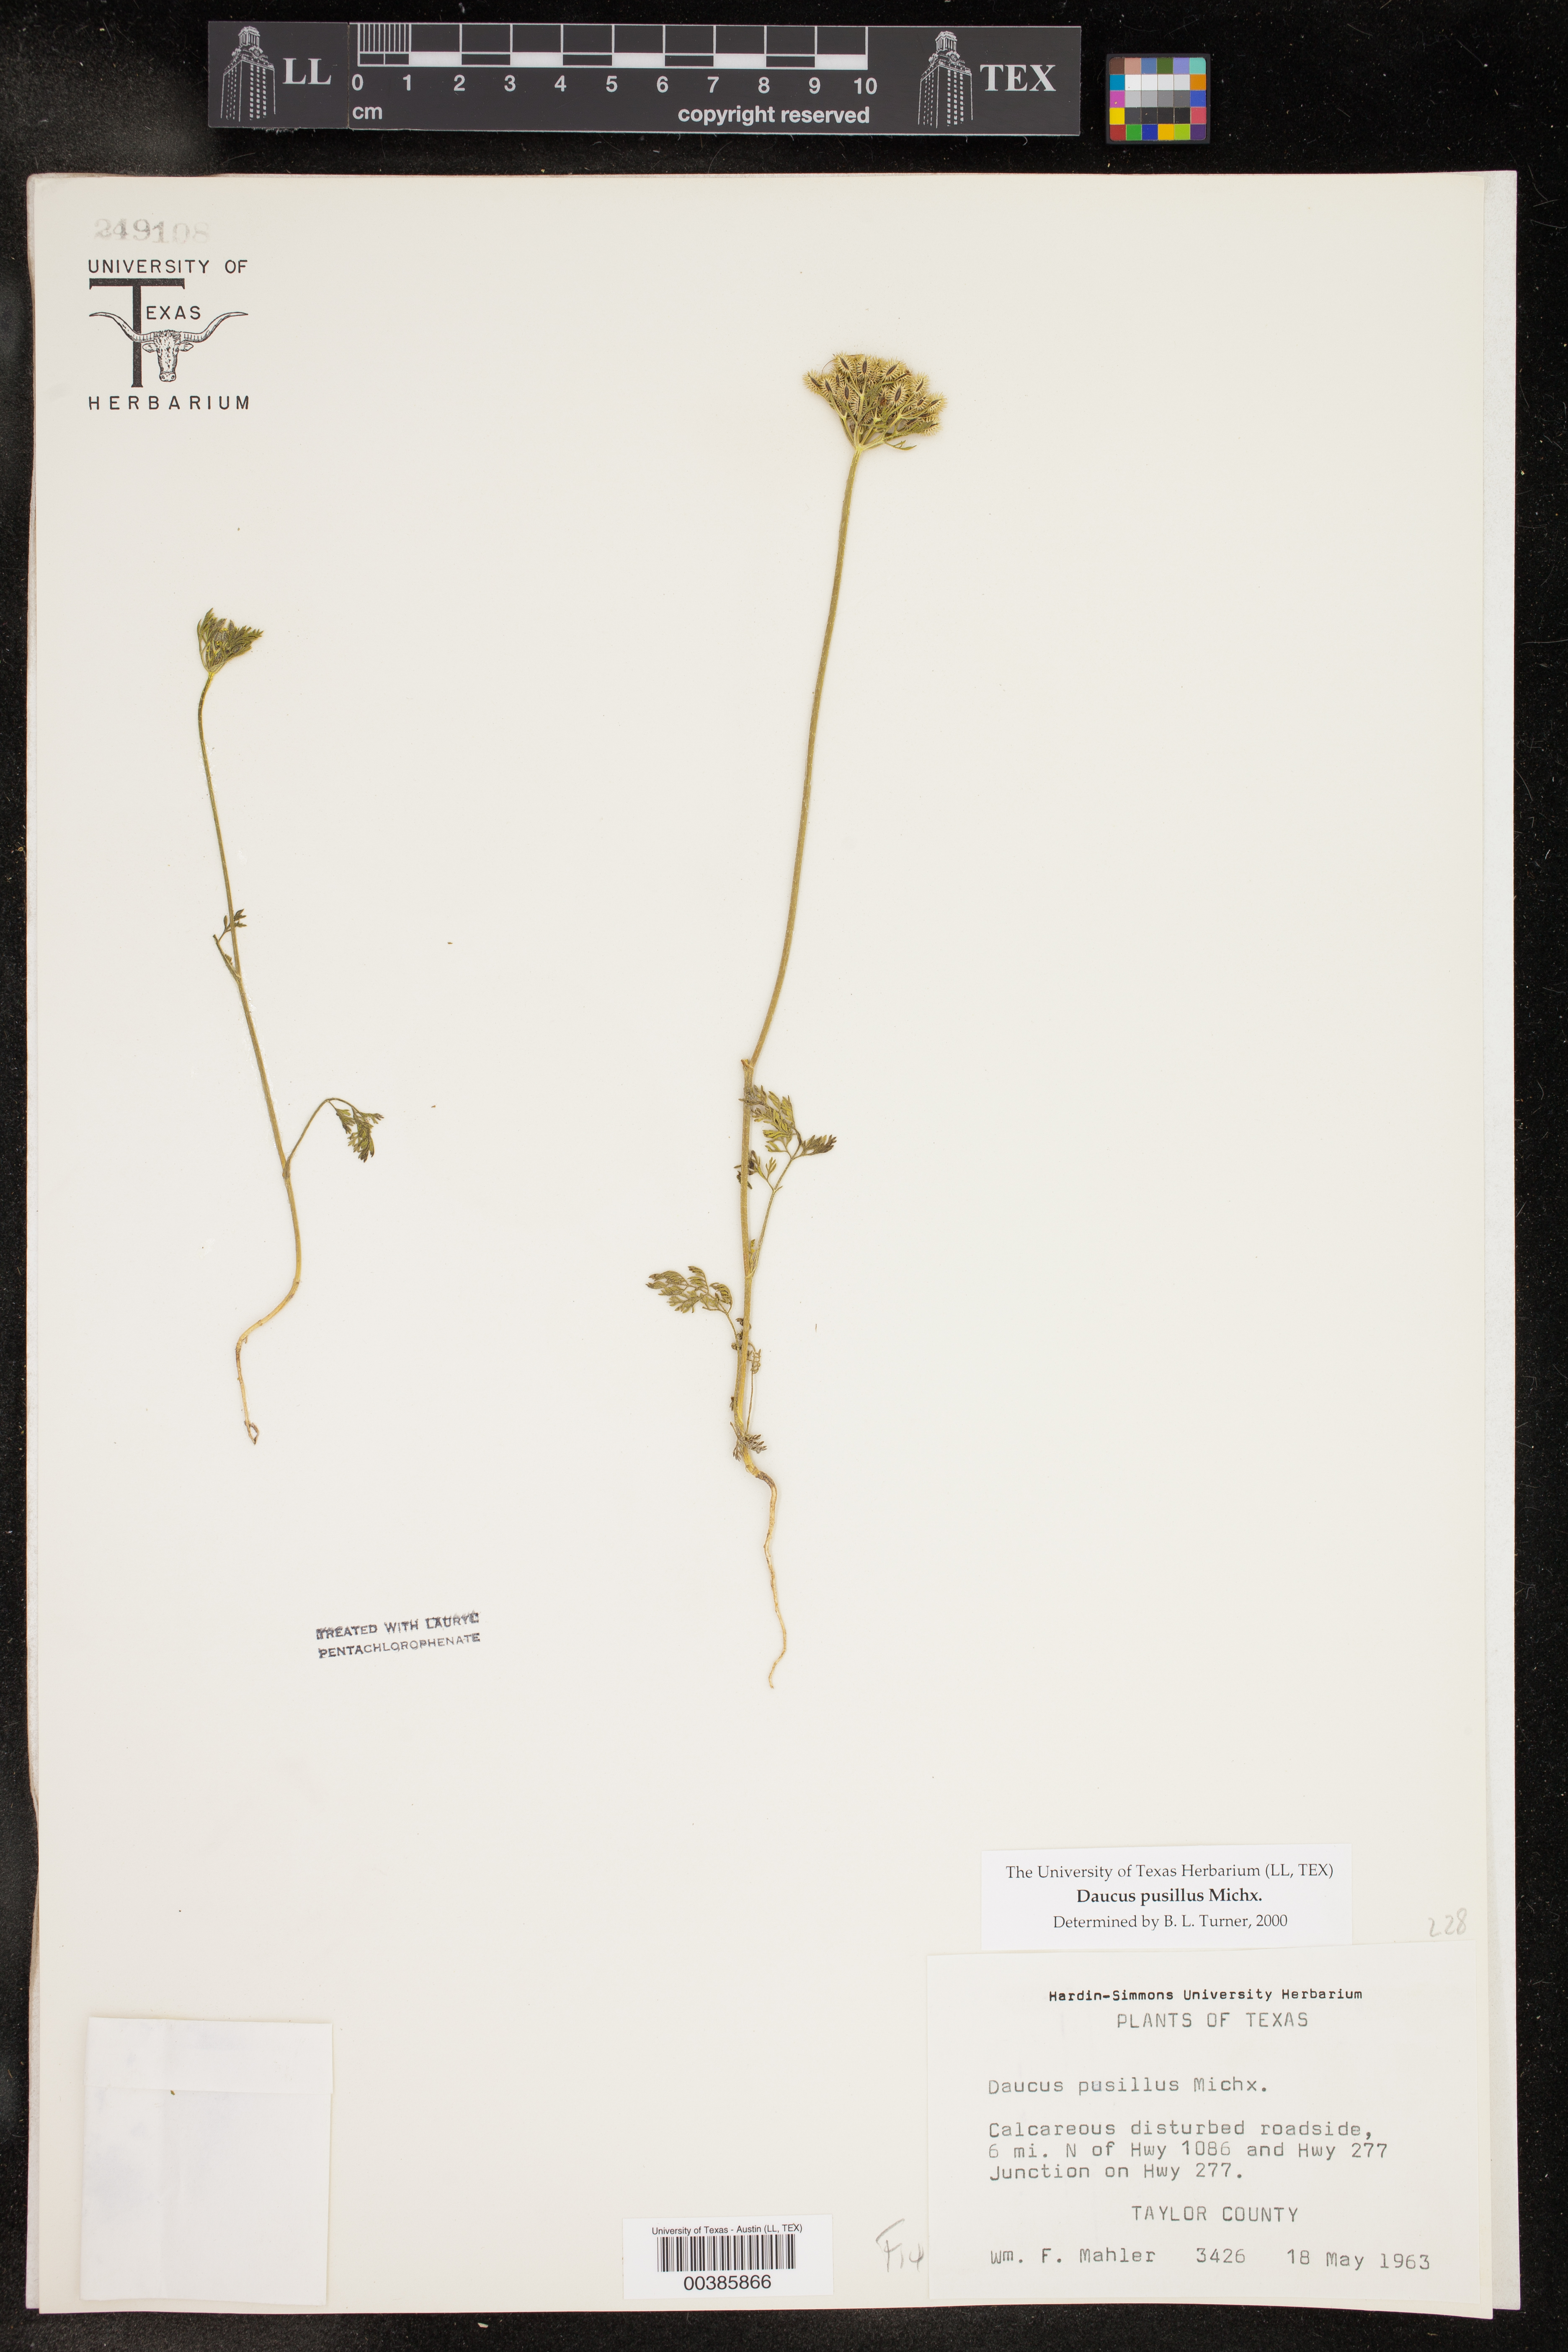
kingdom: Plantae
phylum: Tracheophyta
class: Magnoliopsida
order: Apiales
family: Apiaceae
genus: Daucus
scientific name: Daucus pusillus
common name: Southwest wild carrot
